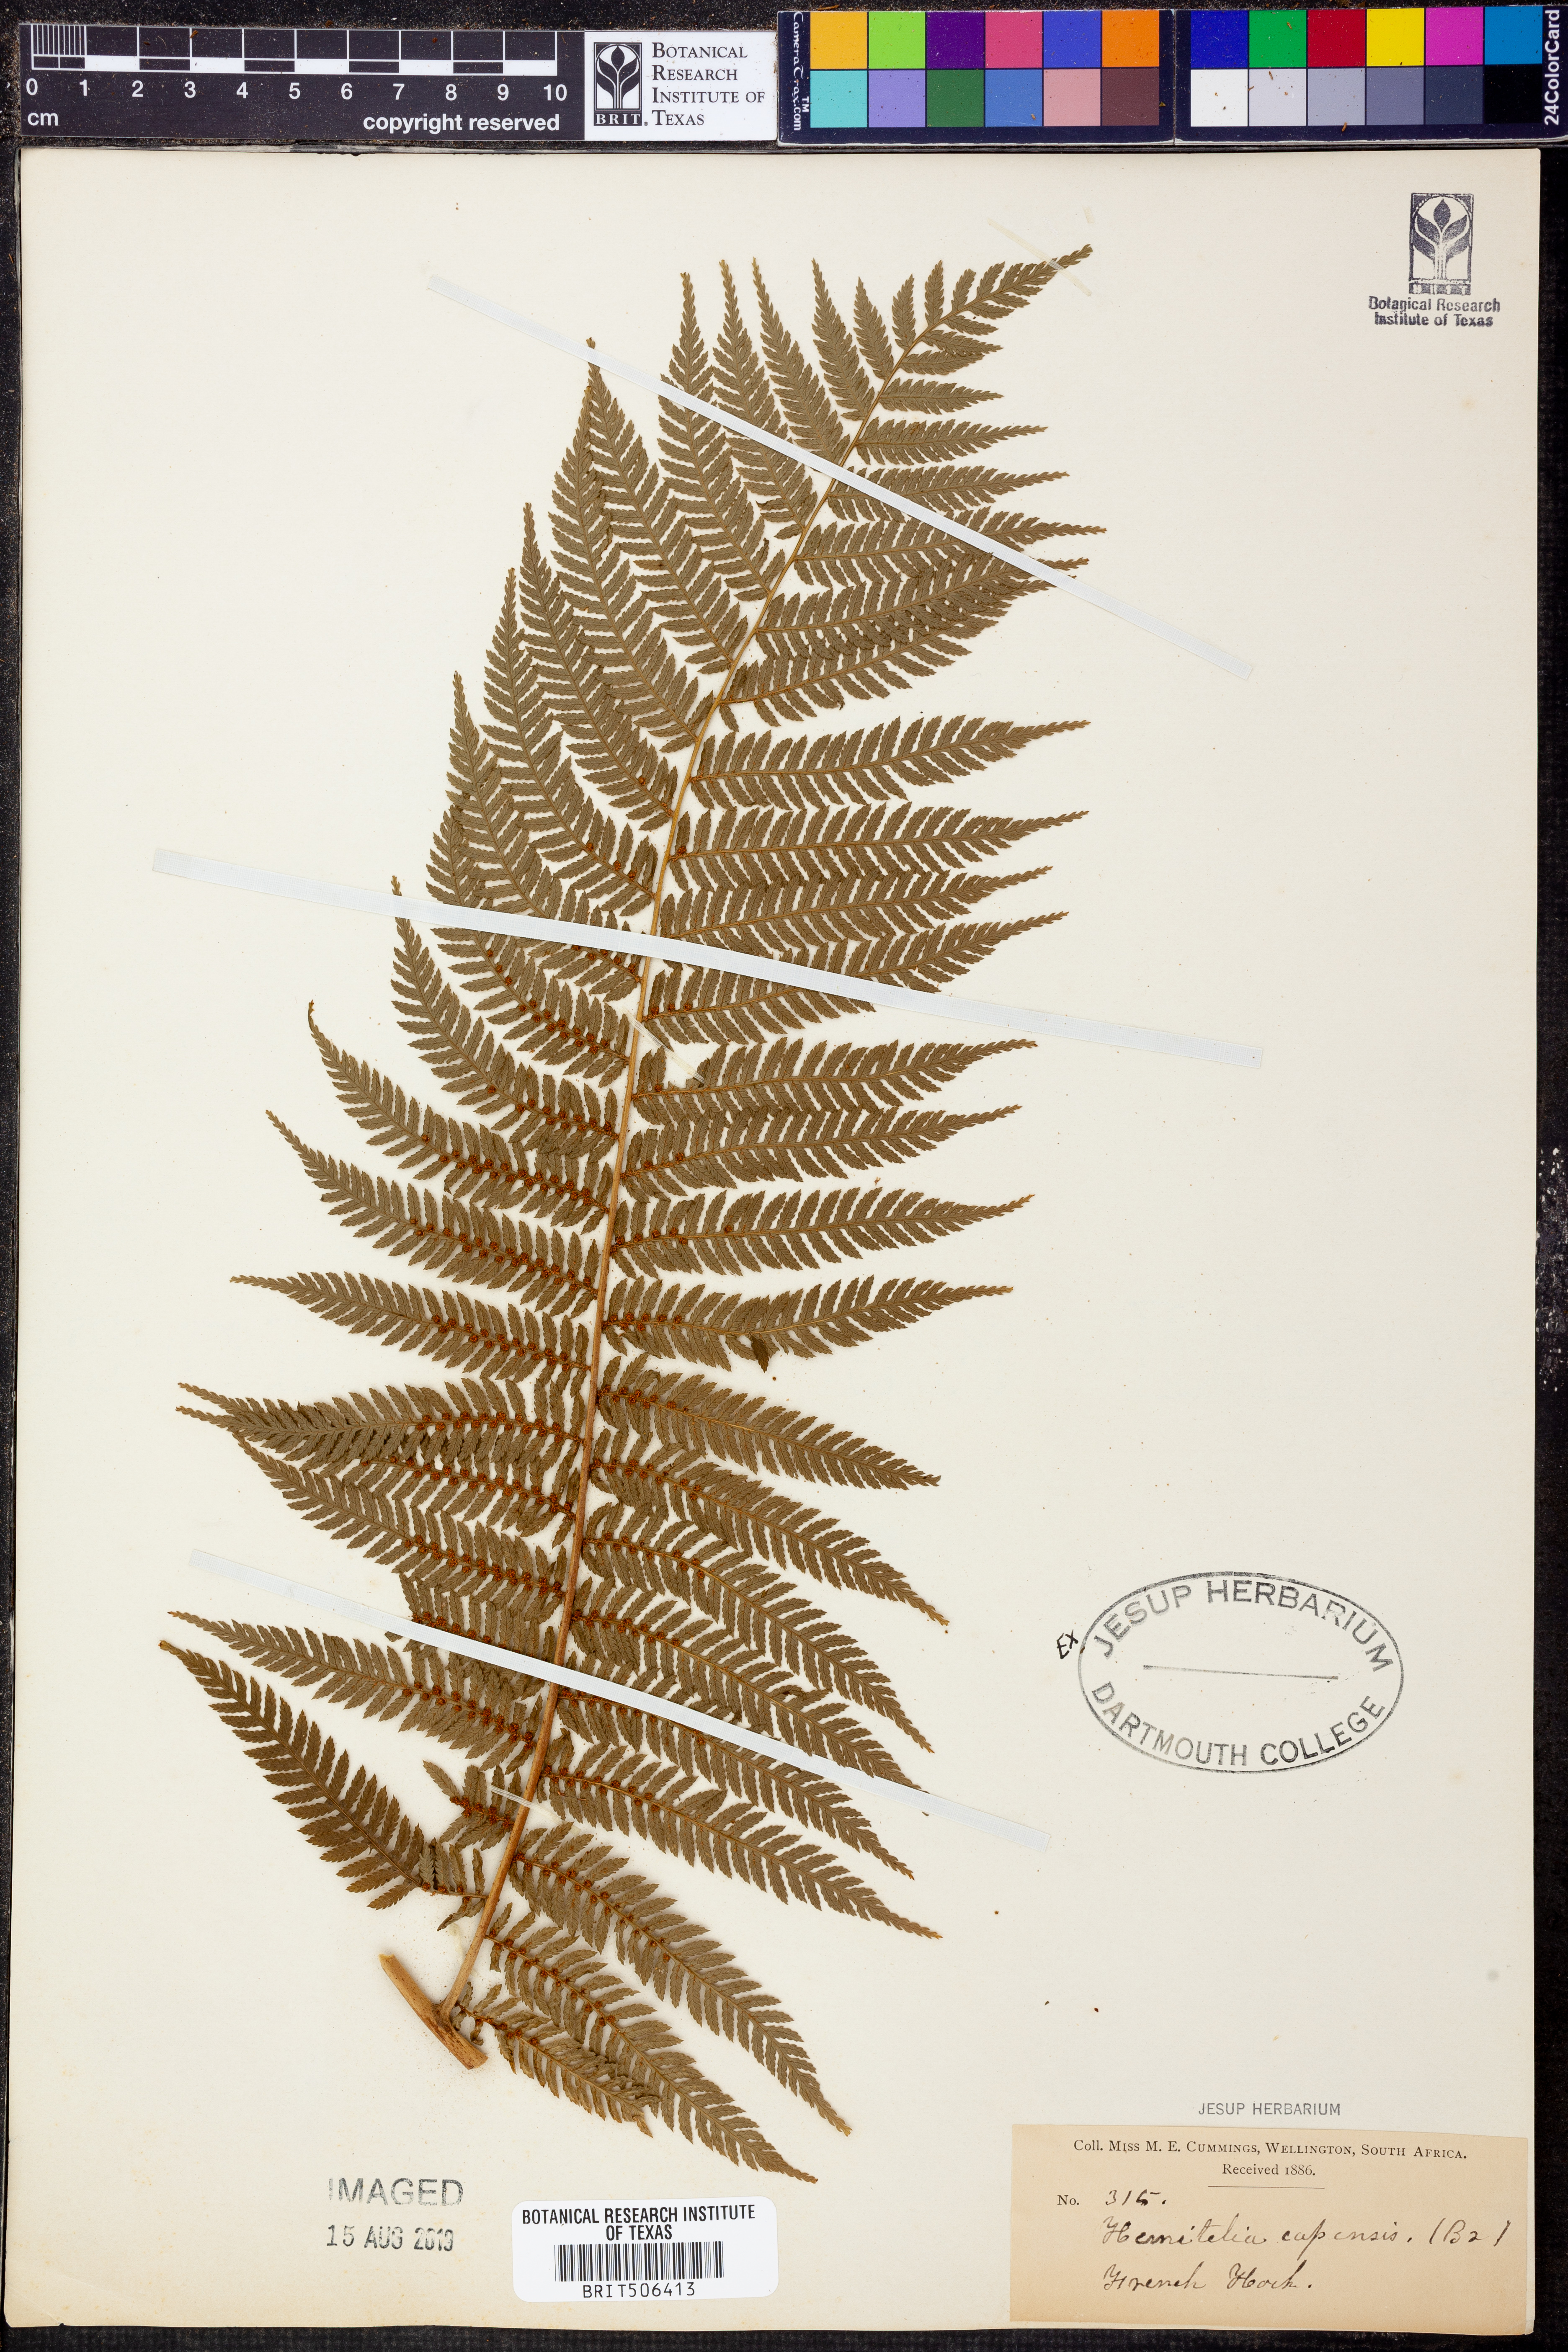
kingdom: Plantae
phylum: Tracheophyta
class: Polypodiopsida
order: Cyatheales
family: Cyatheaceae
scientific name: Cyatheaceae
